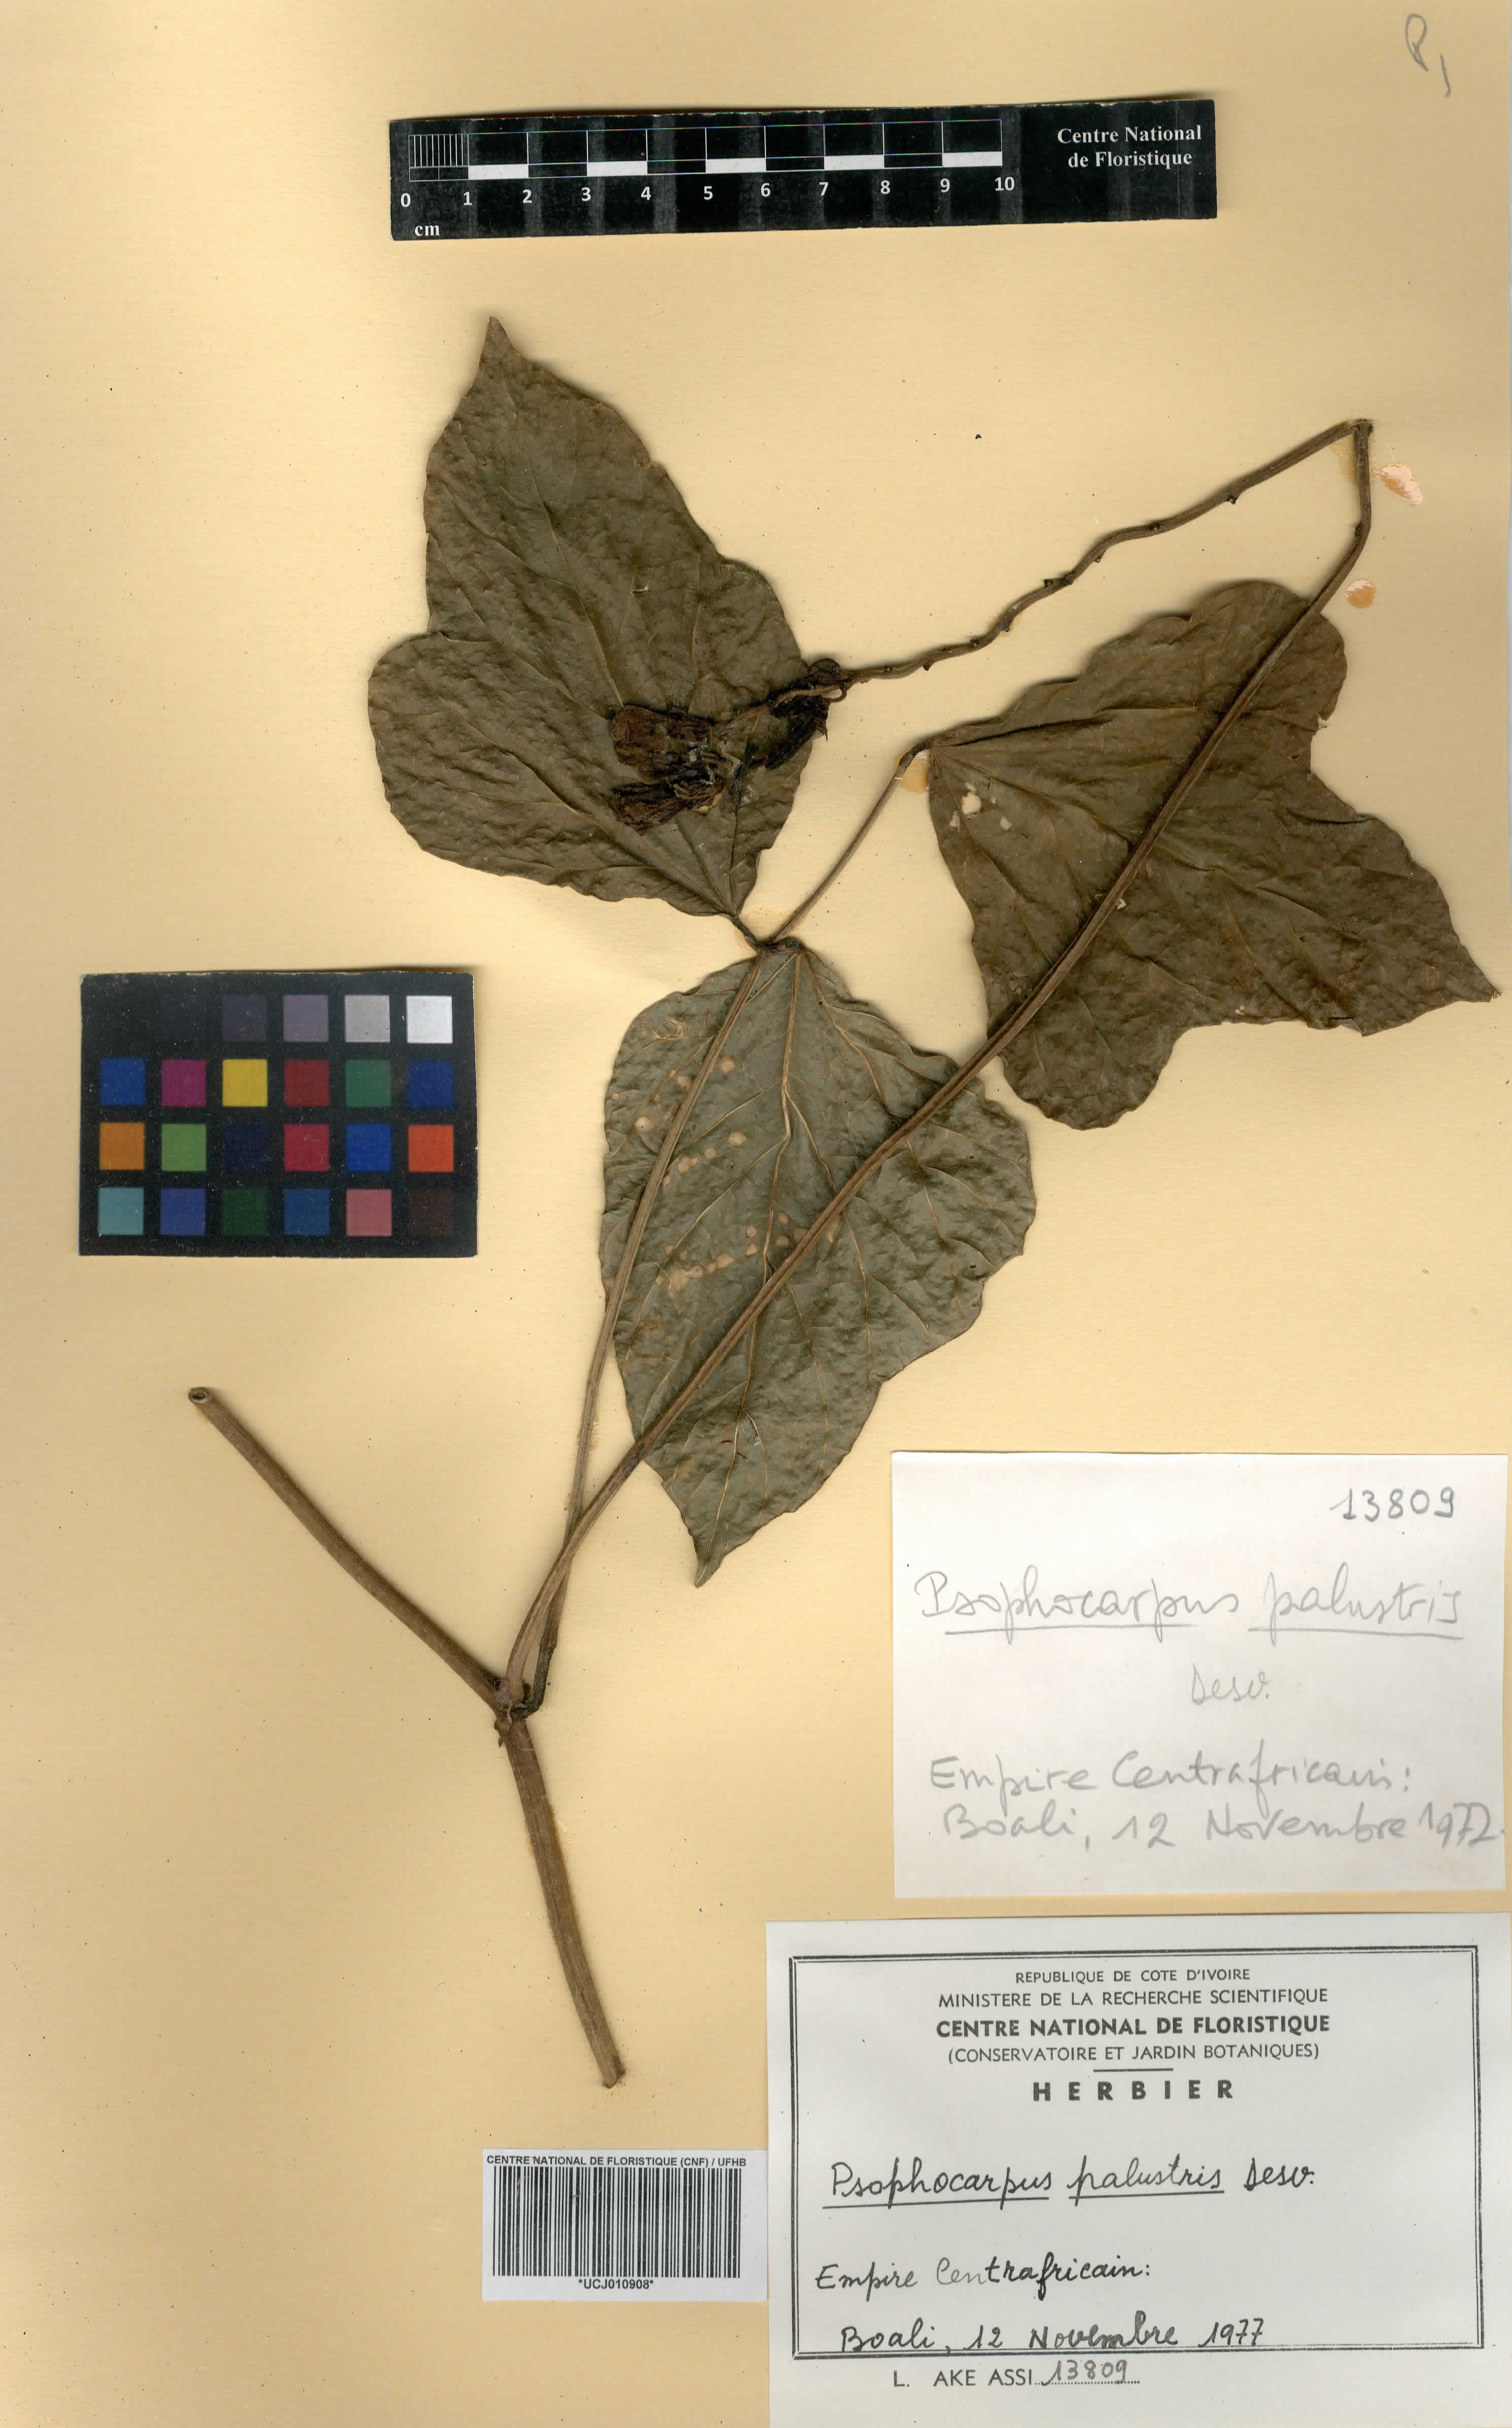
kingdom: Plantae
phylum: Tracheophyta
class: Magnoliopsida
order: Fabales
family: Fabaceae
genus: Psophocarpus
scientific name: Psophocarpus palustris
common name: African winged-bean
